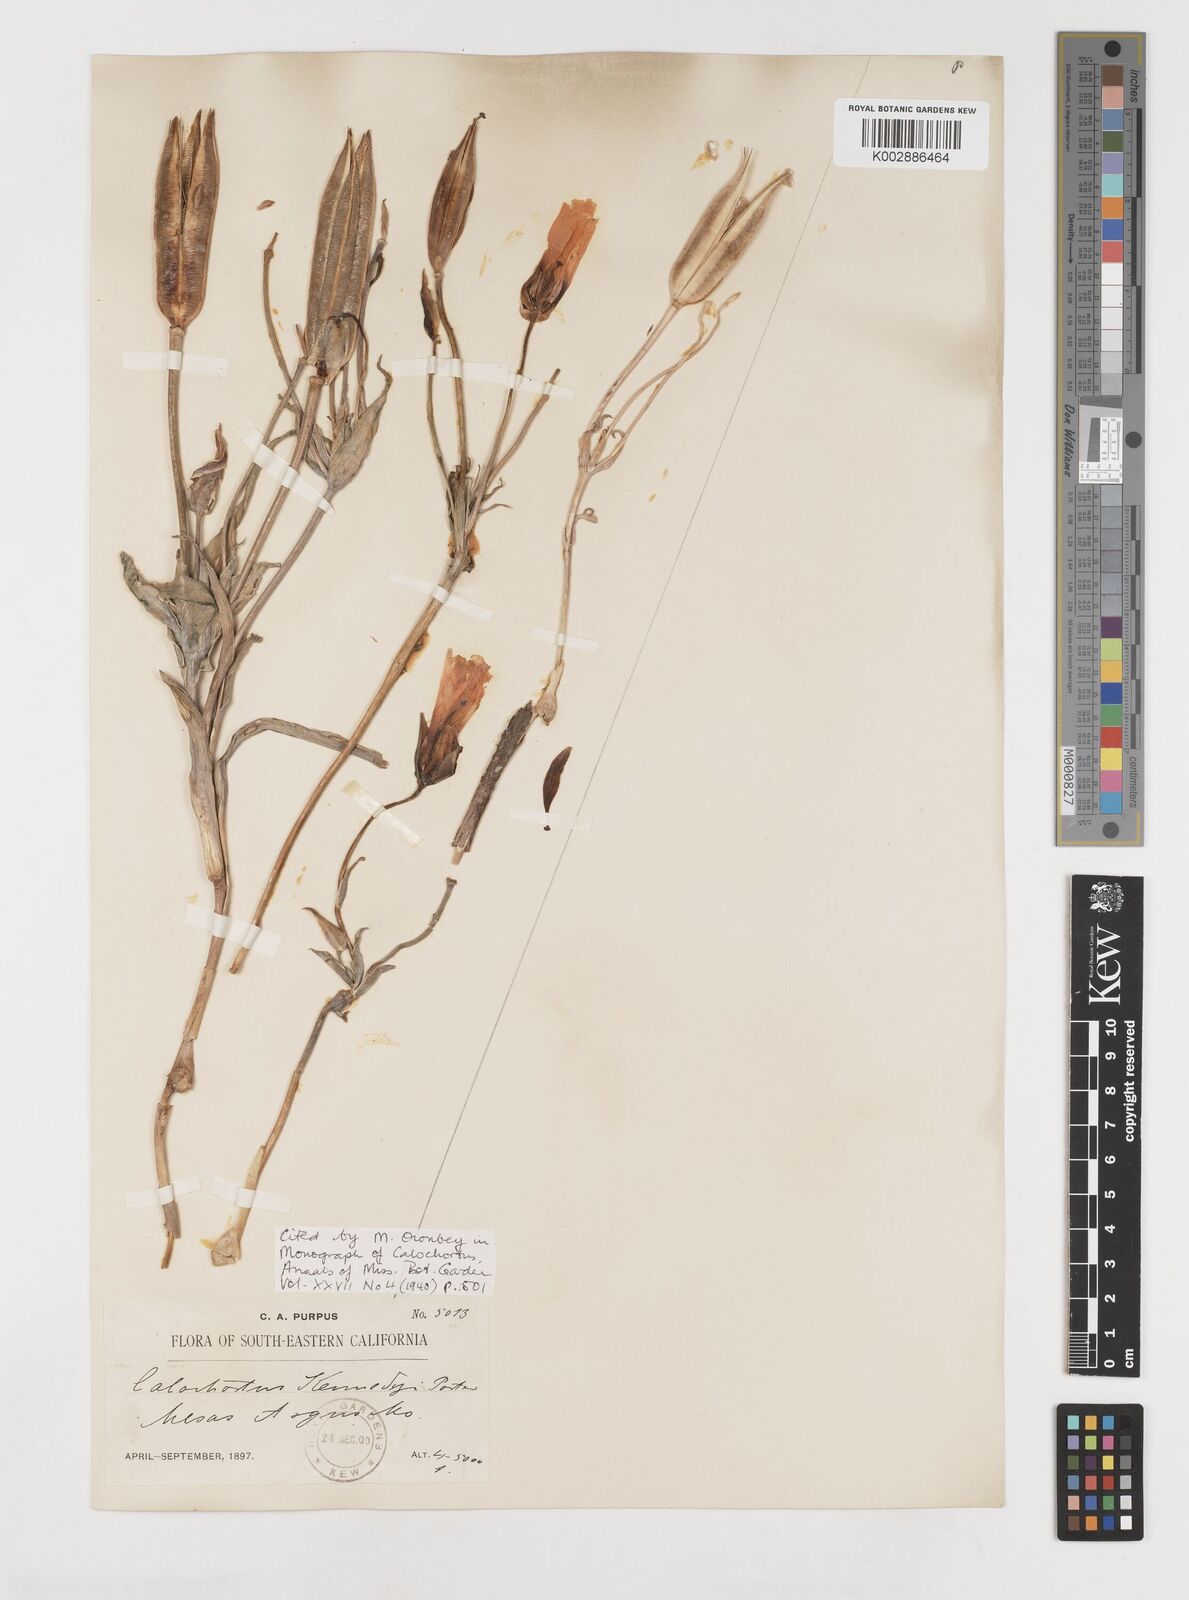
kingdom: Plantae
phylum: Tracheophyta
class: Liliopsida
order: Liliales
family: Liliaceae
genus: Calochortus
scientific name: Calochortus kennedyi
